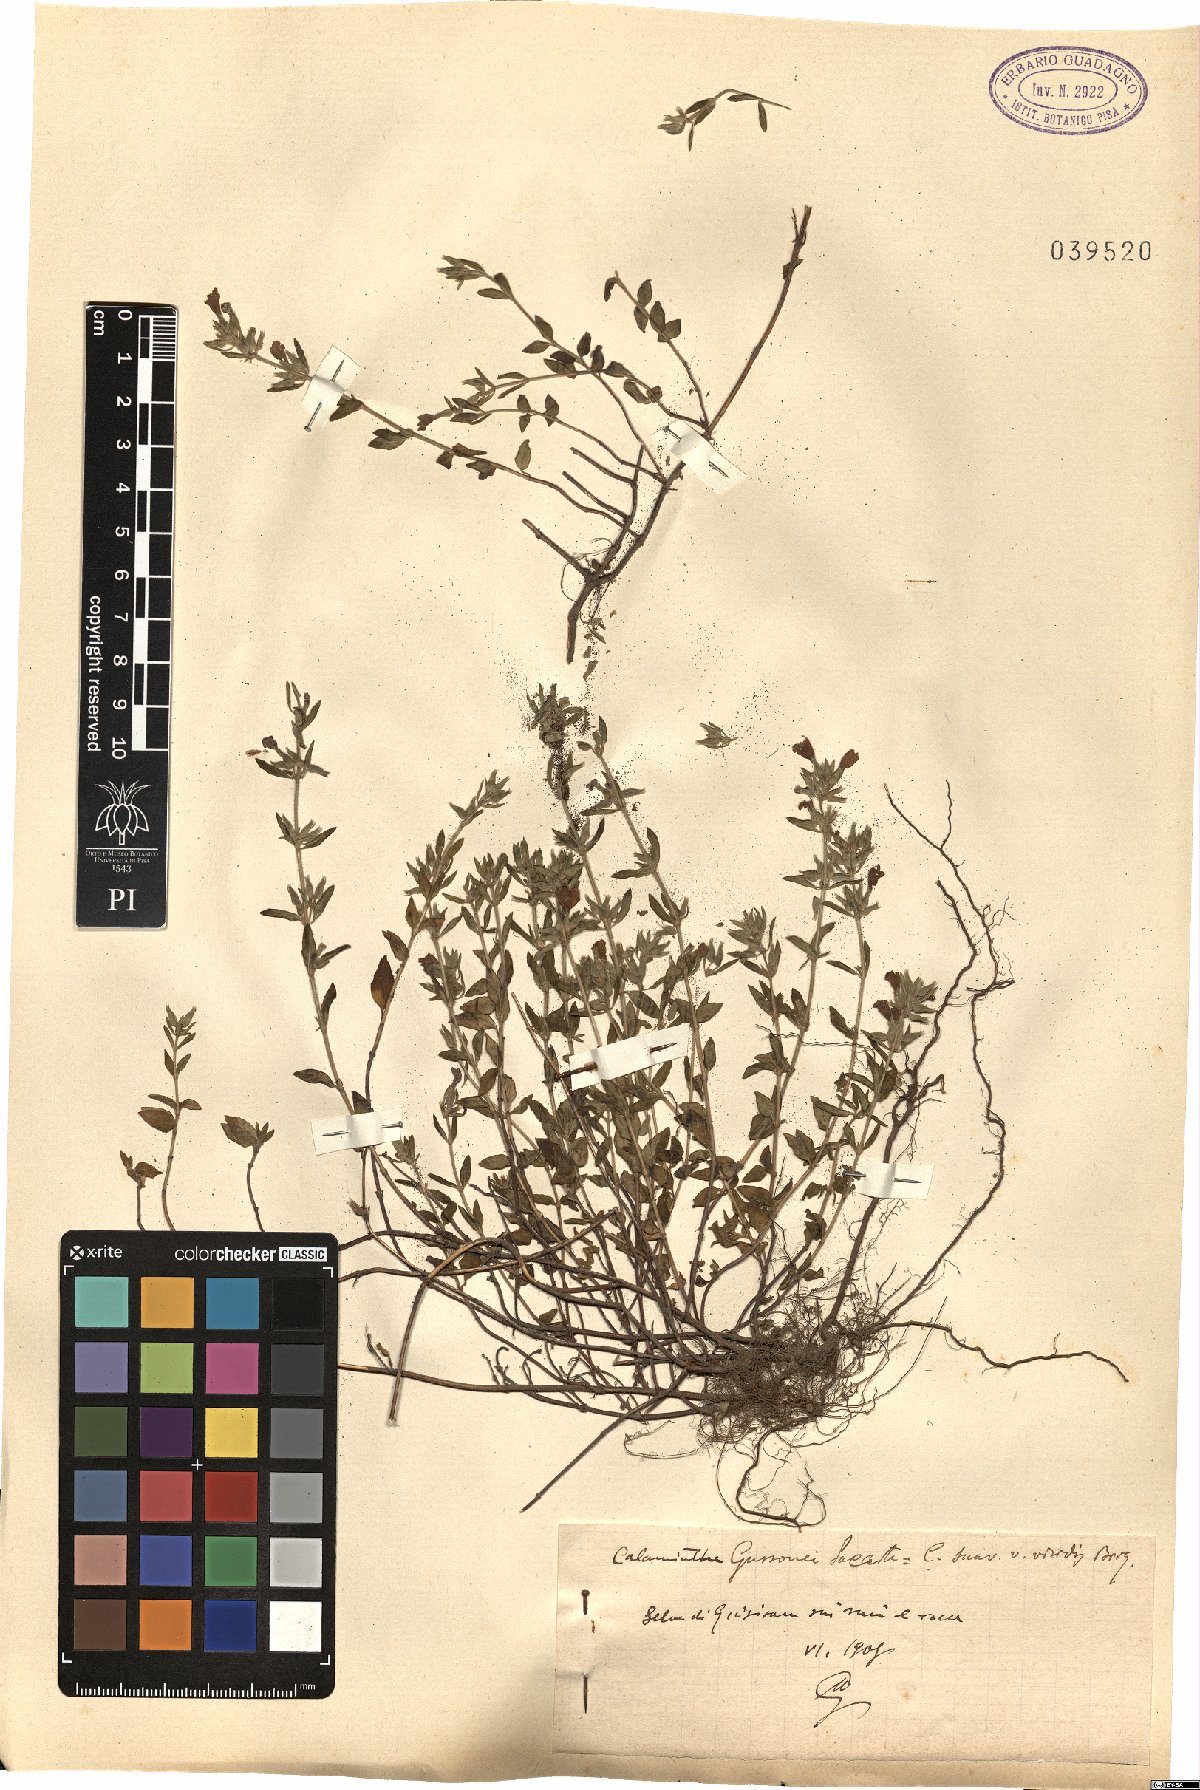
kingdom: Plantae
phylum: Tracheophyta
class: Magnoliopsida
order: Lamiales
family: Lamiaceae
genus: Clinopodium
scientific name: Clinopodium suaveolens
